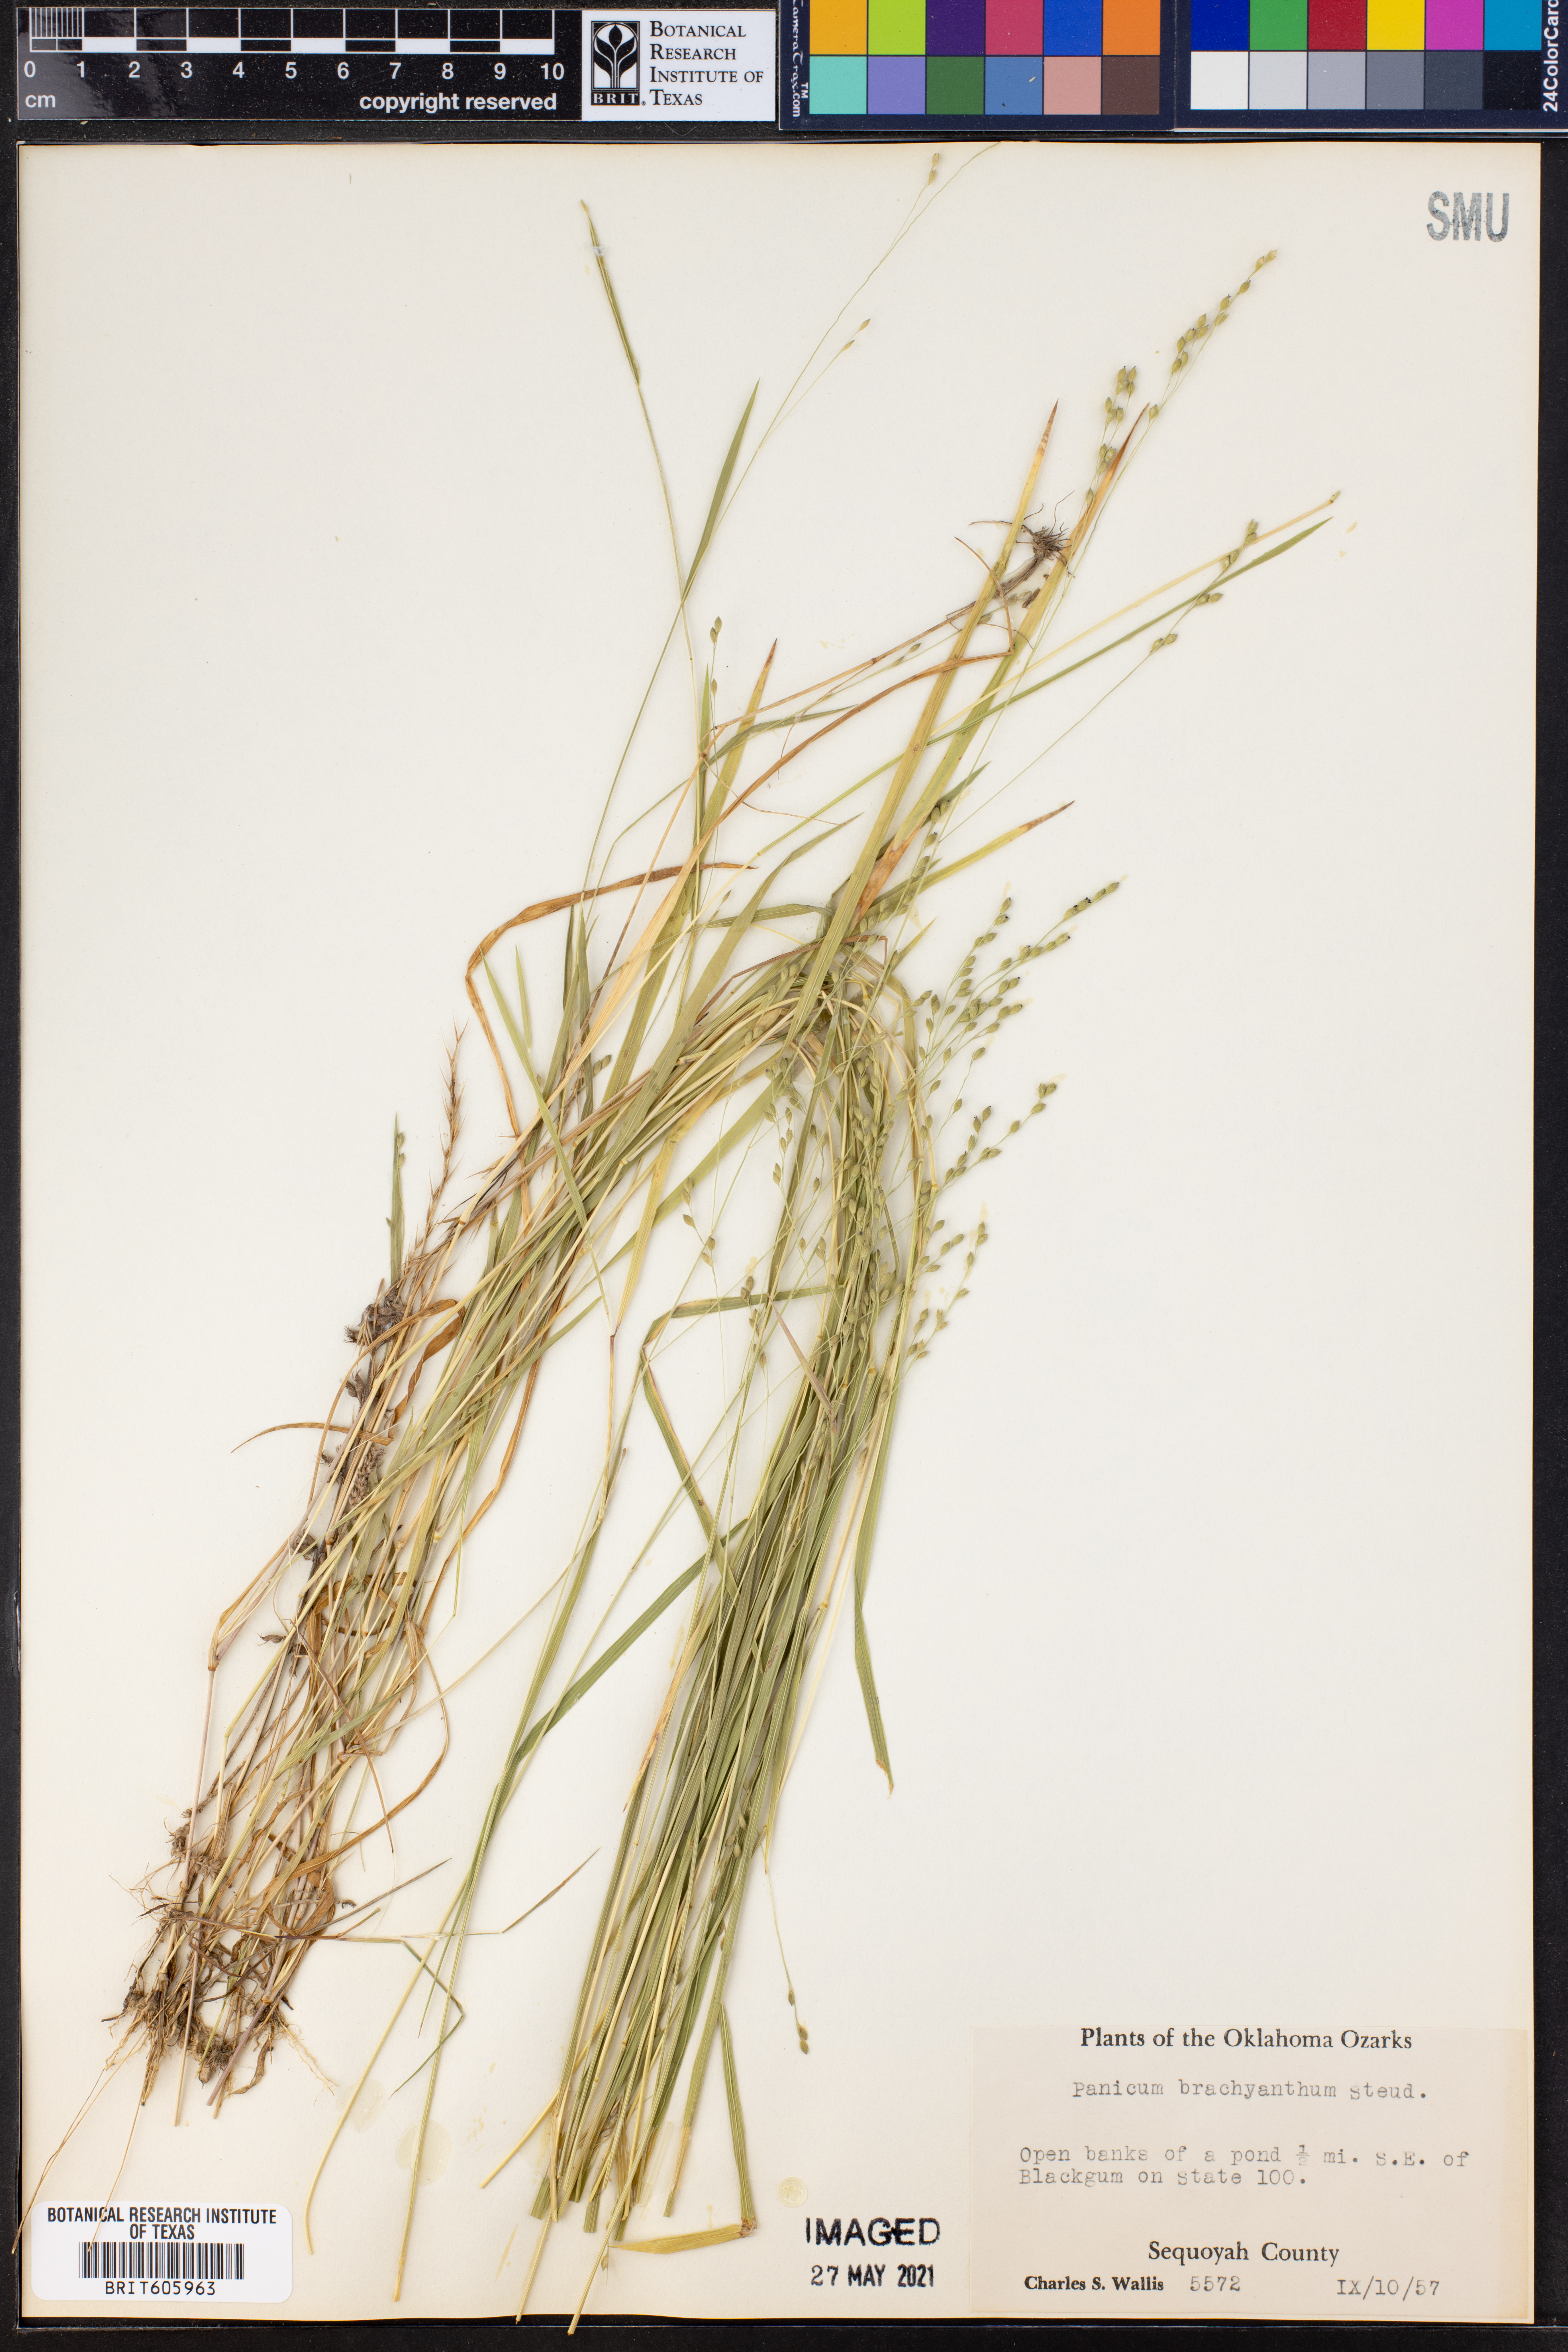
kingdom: Plantae
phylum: Tracheophyta
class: Liliopsida
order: Poales
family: Poaceae
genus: Kellochloa
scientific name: Kellochloa brachyantha
